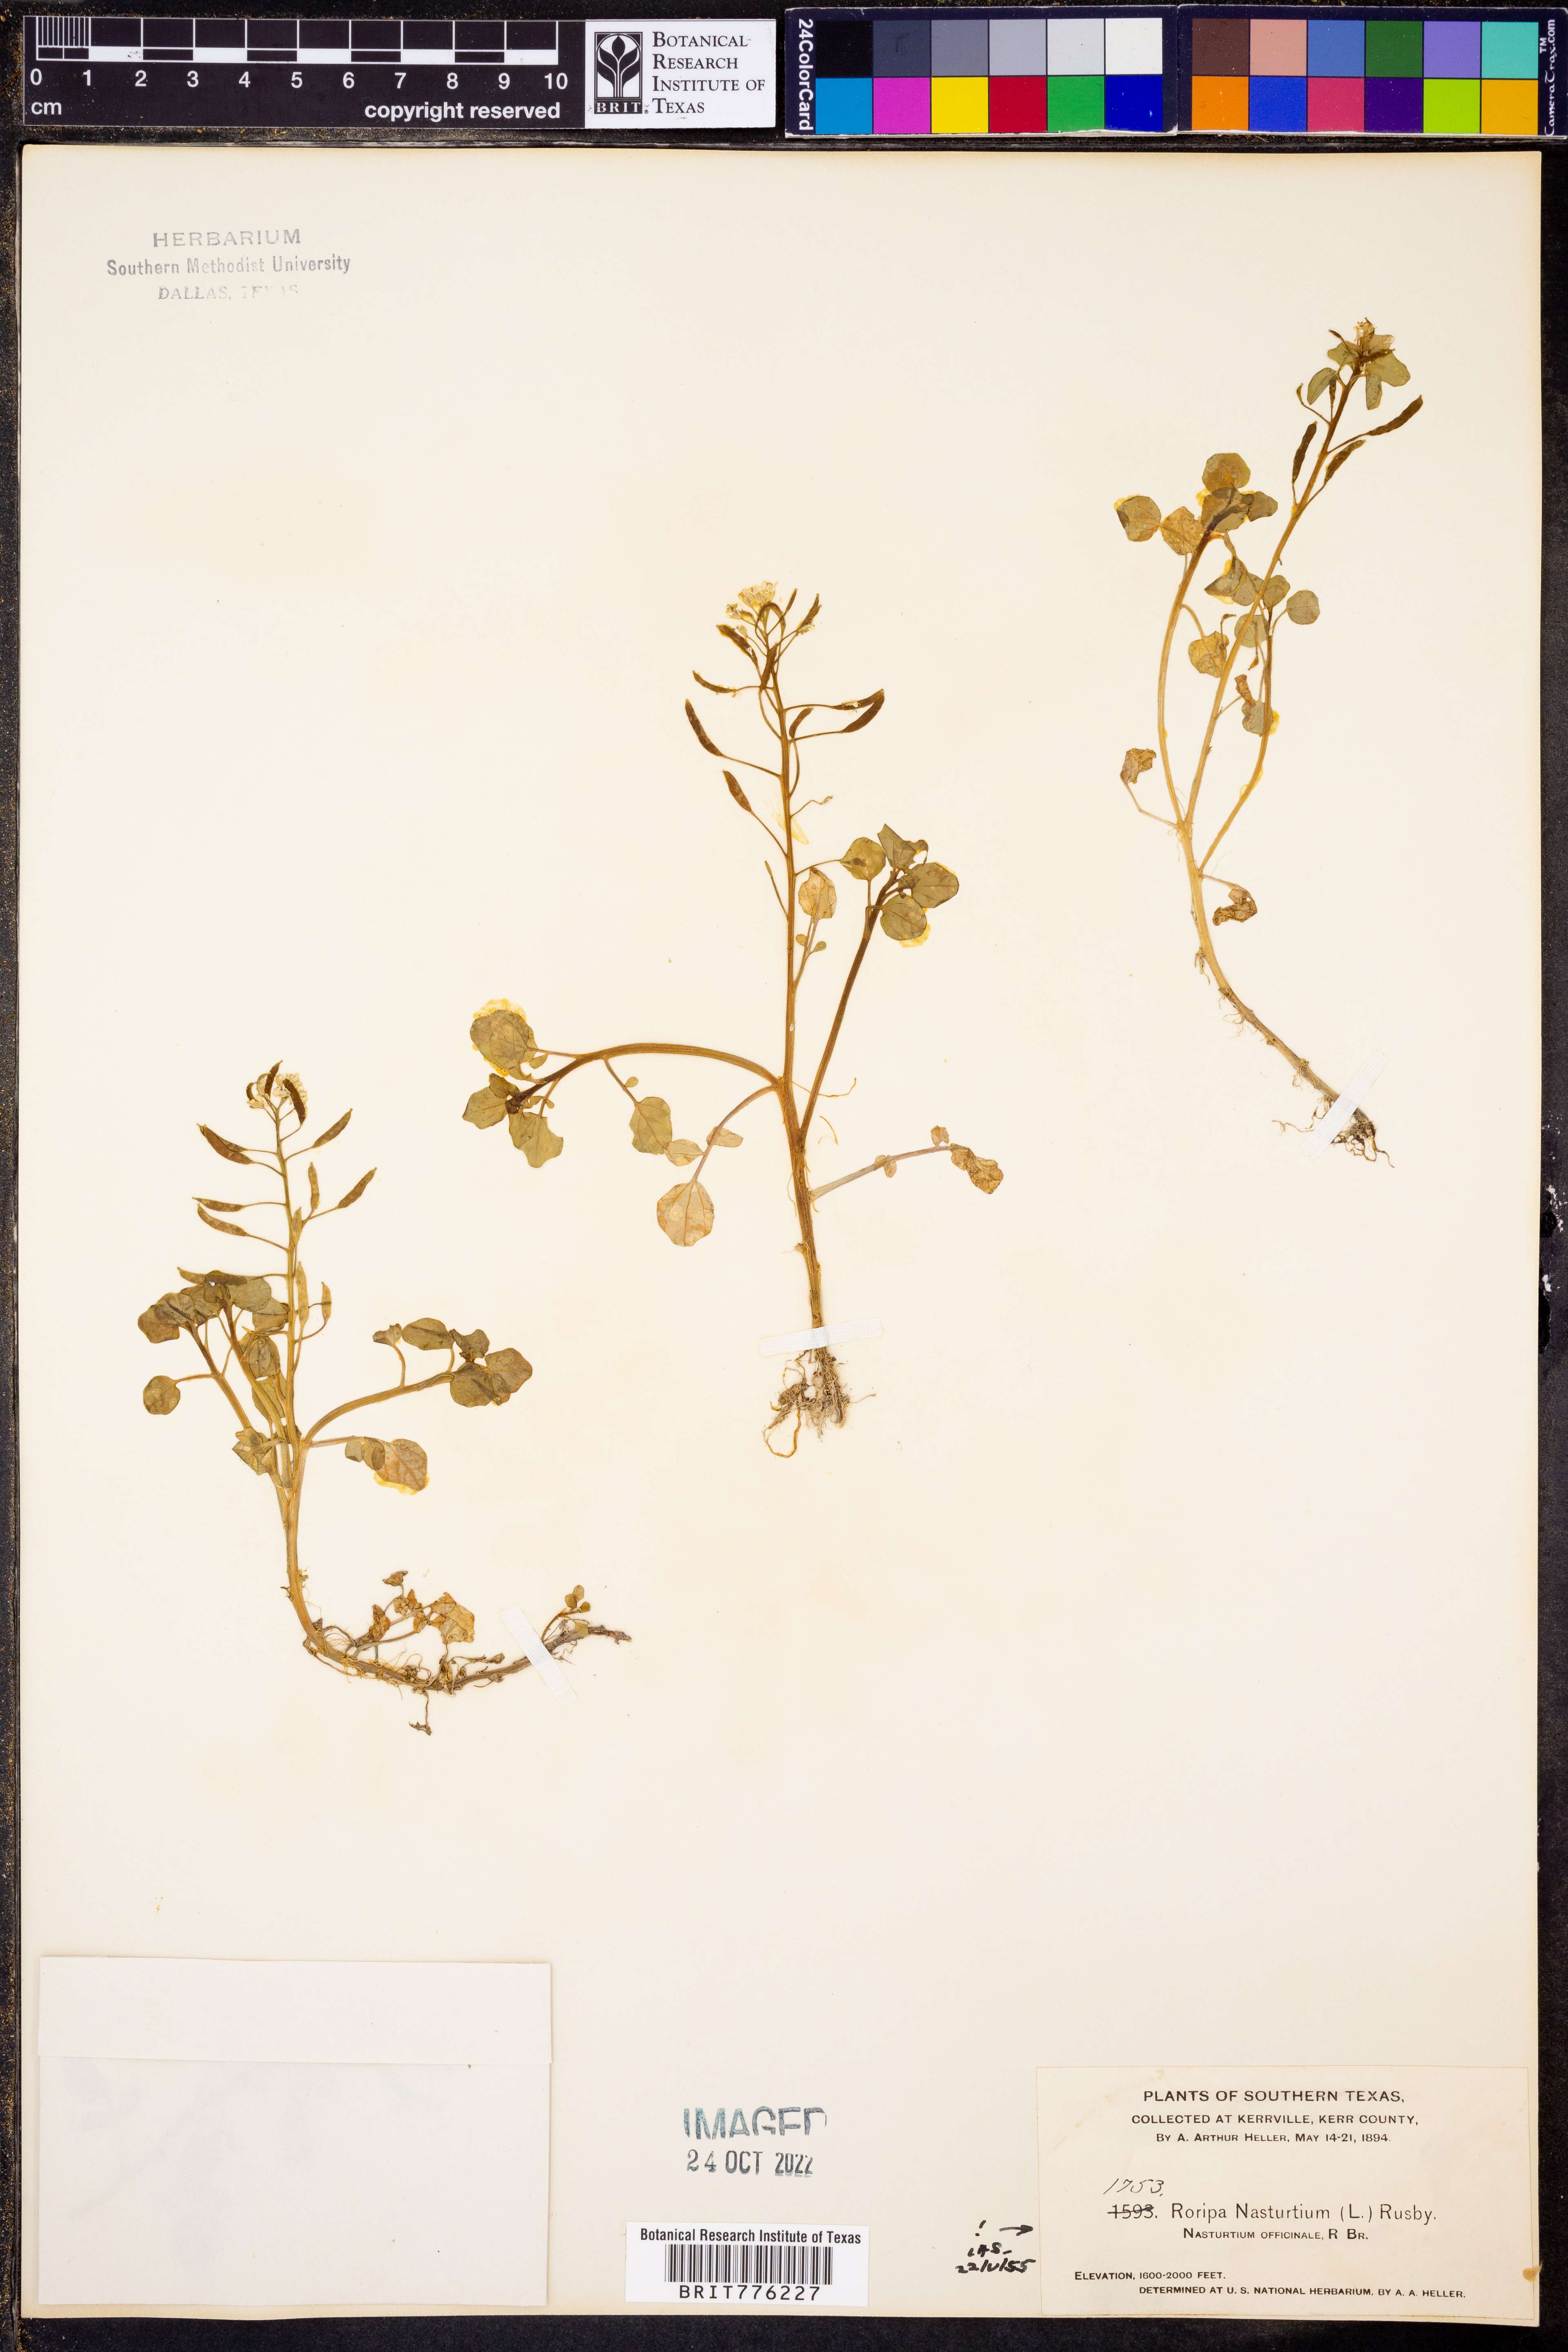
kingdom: Plantae
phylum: Tracheophyta
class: Magnoliopsida
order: Brassicales
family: Brassicaceae
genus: Nasturtium
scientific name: Nasturtium officinale
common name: Watercress
